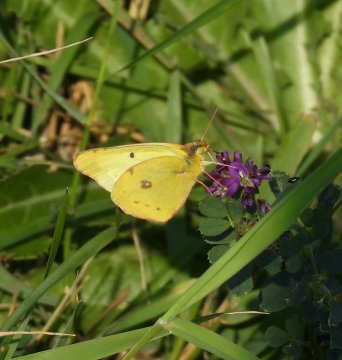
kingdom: Animalia
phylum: Arthropoda
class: Insecta
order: Lepidoptera
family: Pieridae
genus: Colias
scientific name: Colias philodice
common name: Clouded Sulphur
